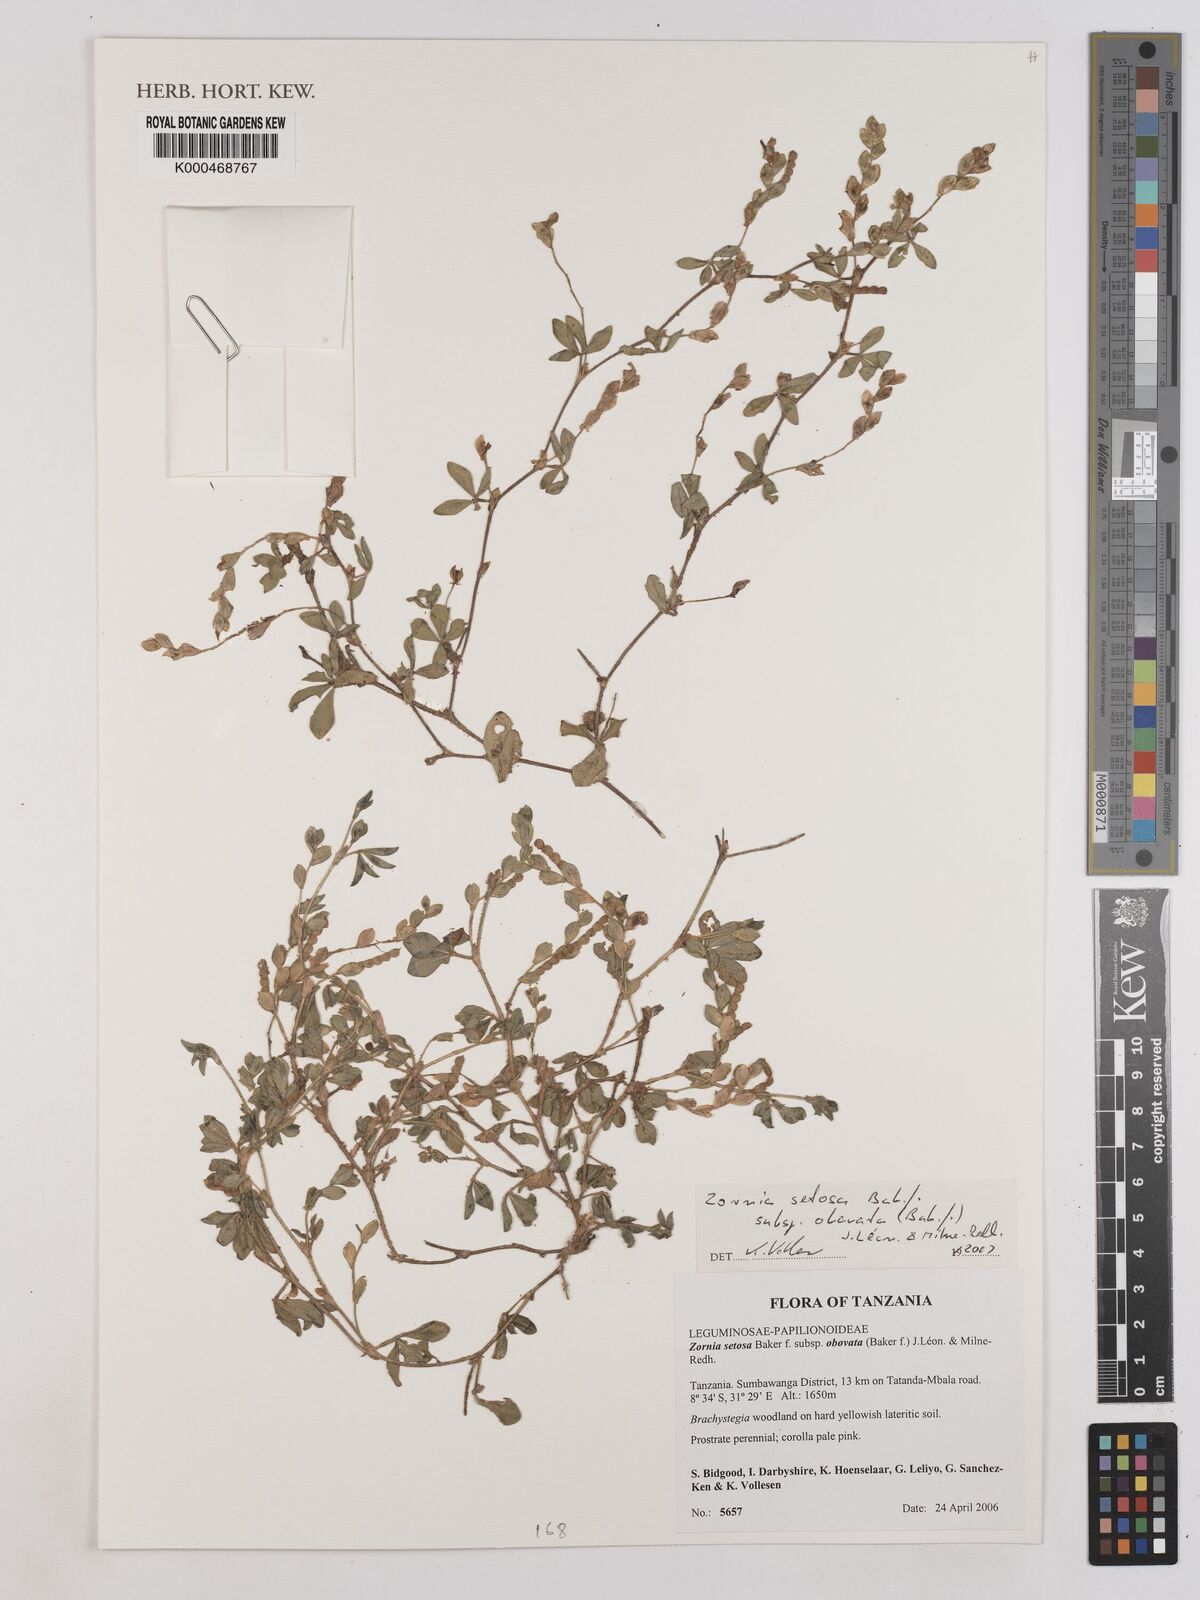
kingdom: Plantae
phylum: Tracheophyta
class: Magnoliopsida
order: Fabales
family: Fabaceae
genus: Zornia
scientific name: Zornia setosa
